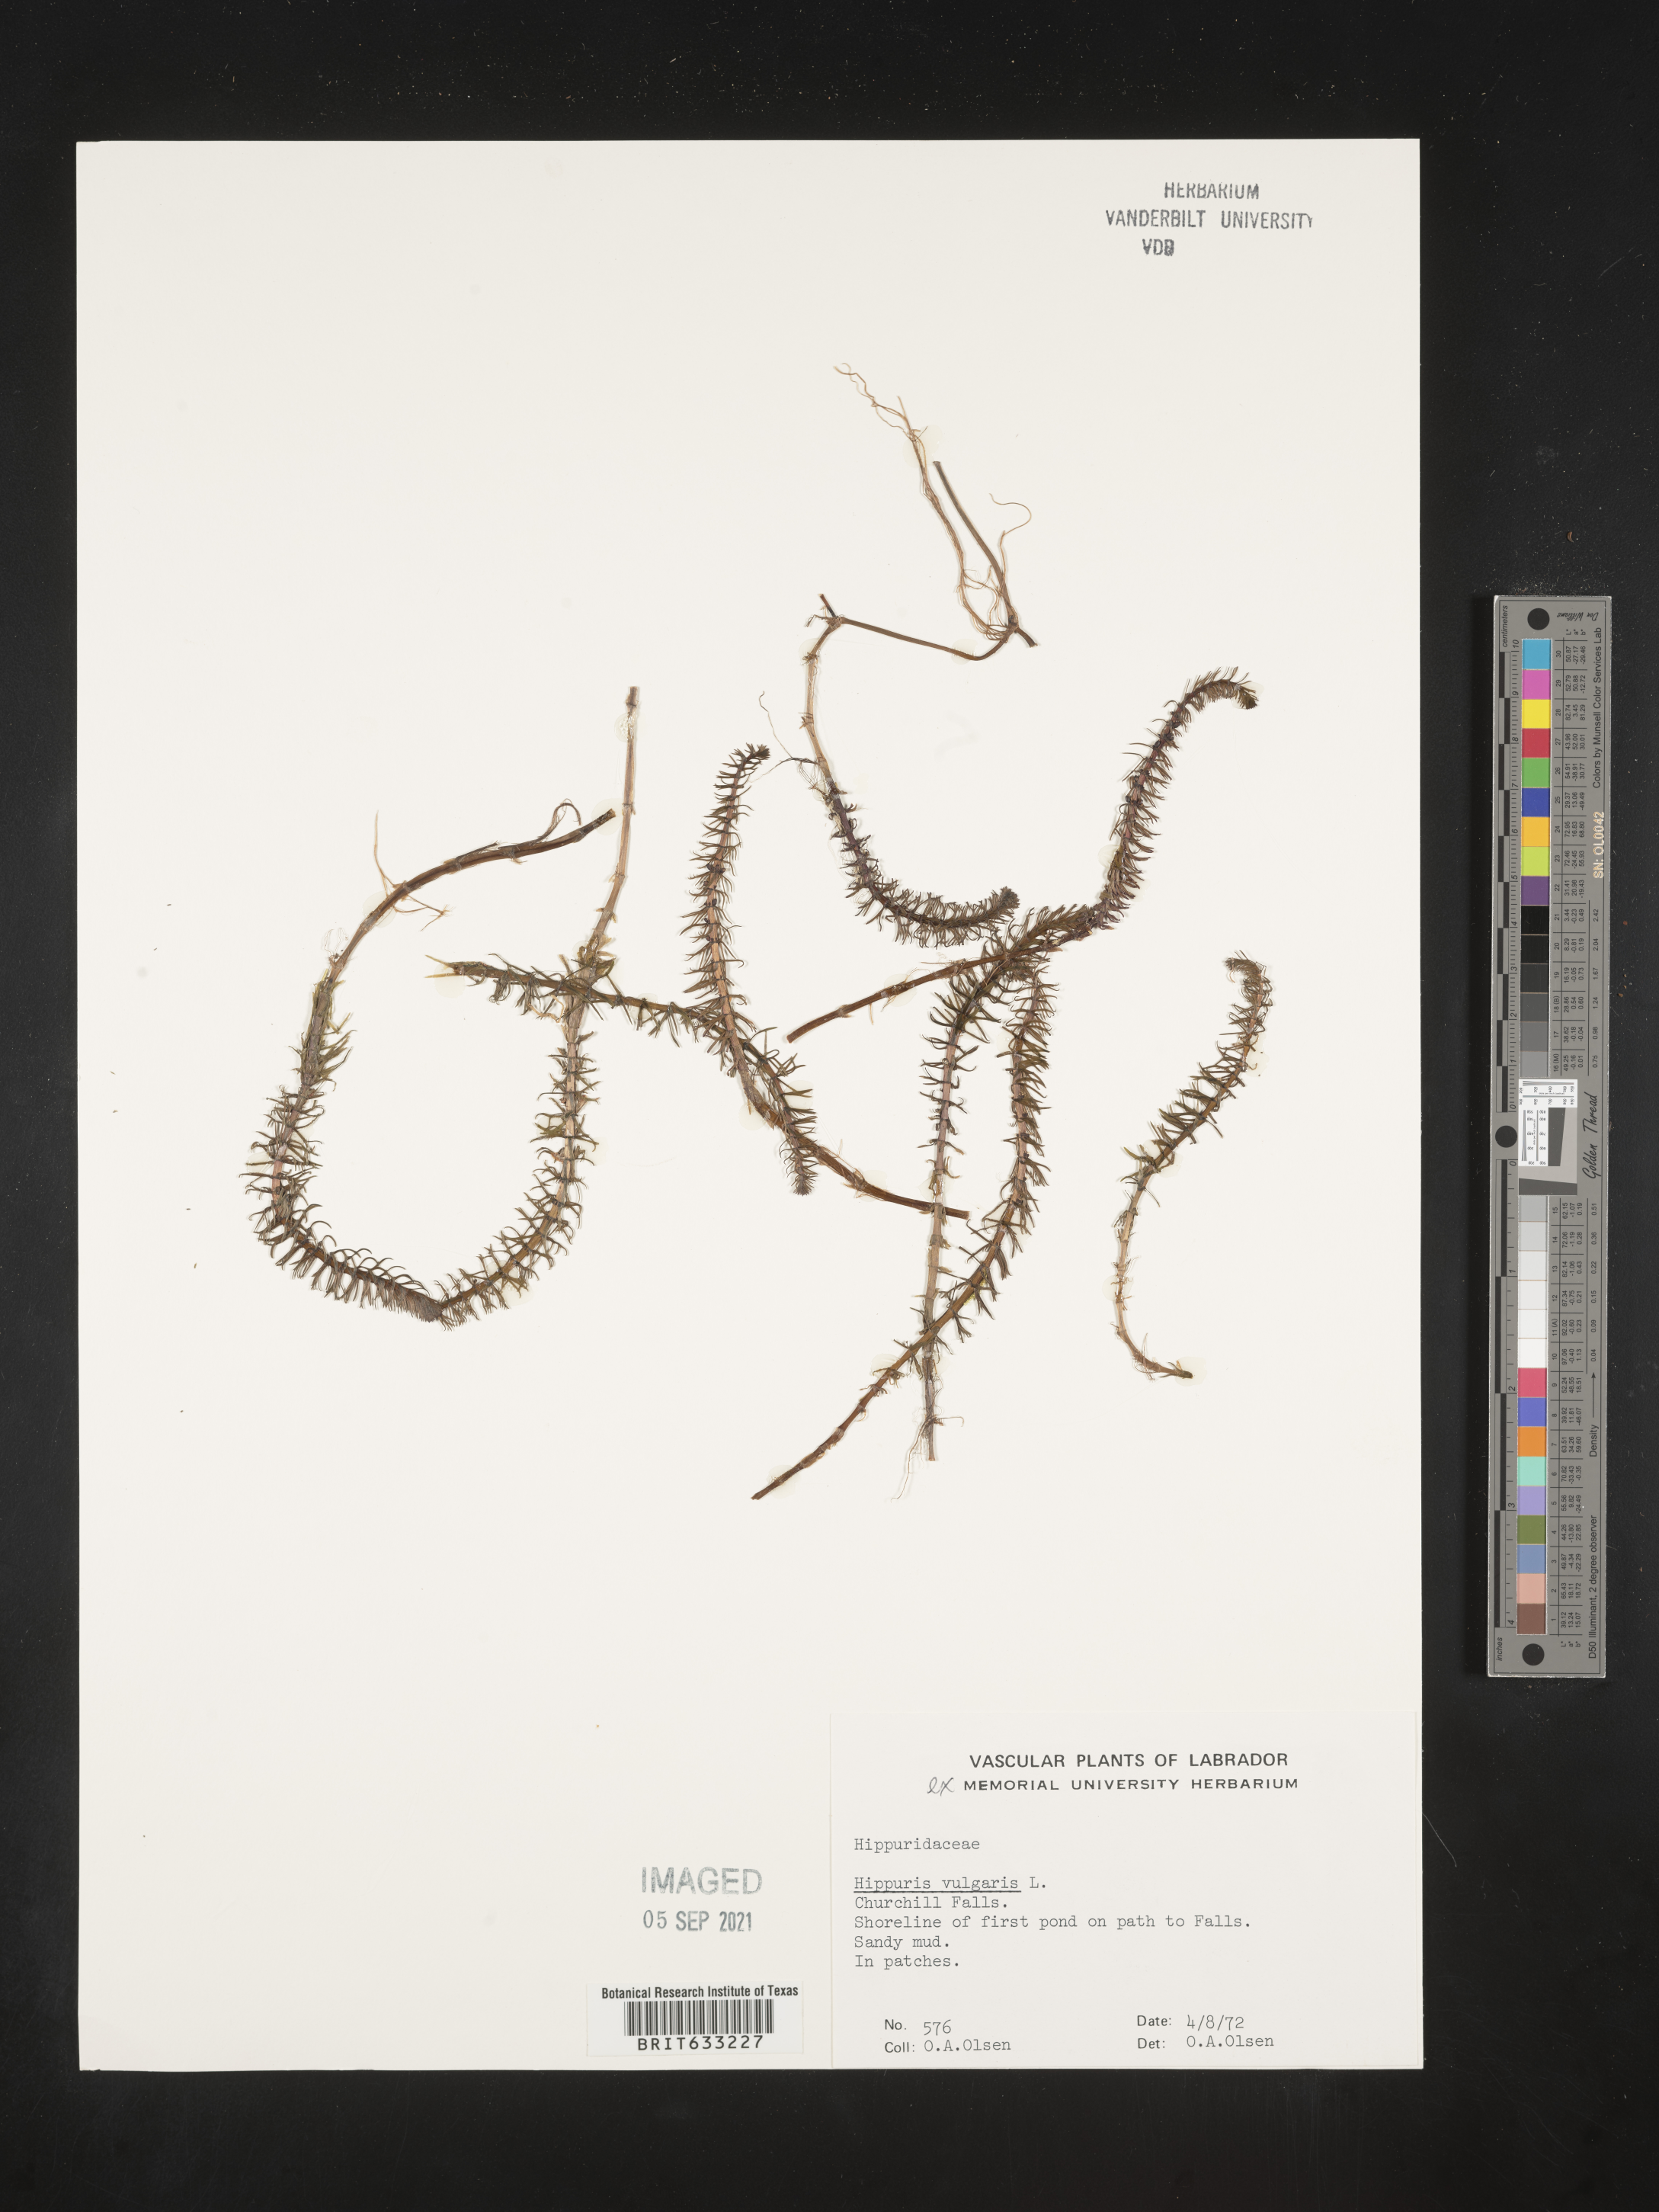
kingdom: Plantae
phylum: Tracheophyta
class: Magnoliopsida
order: Lamiales
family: Plantaginaceae
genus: Hippuris
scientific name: Hippuris
